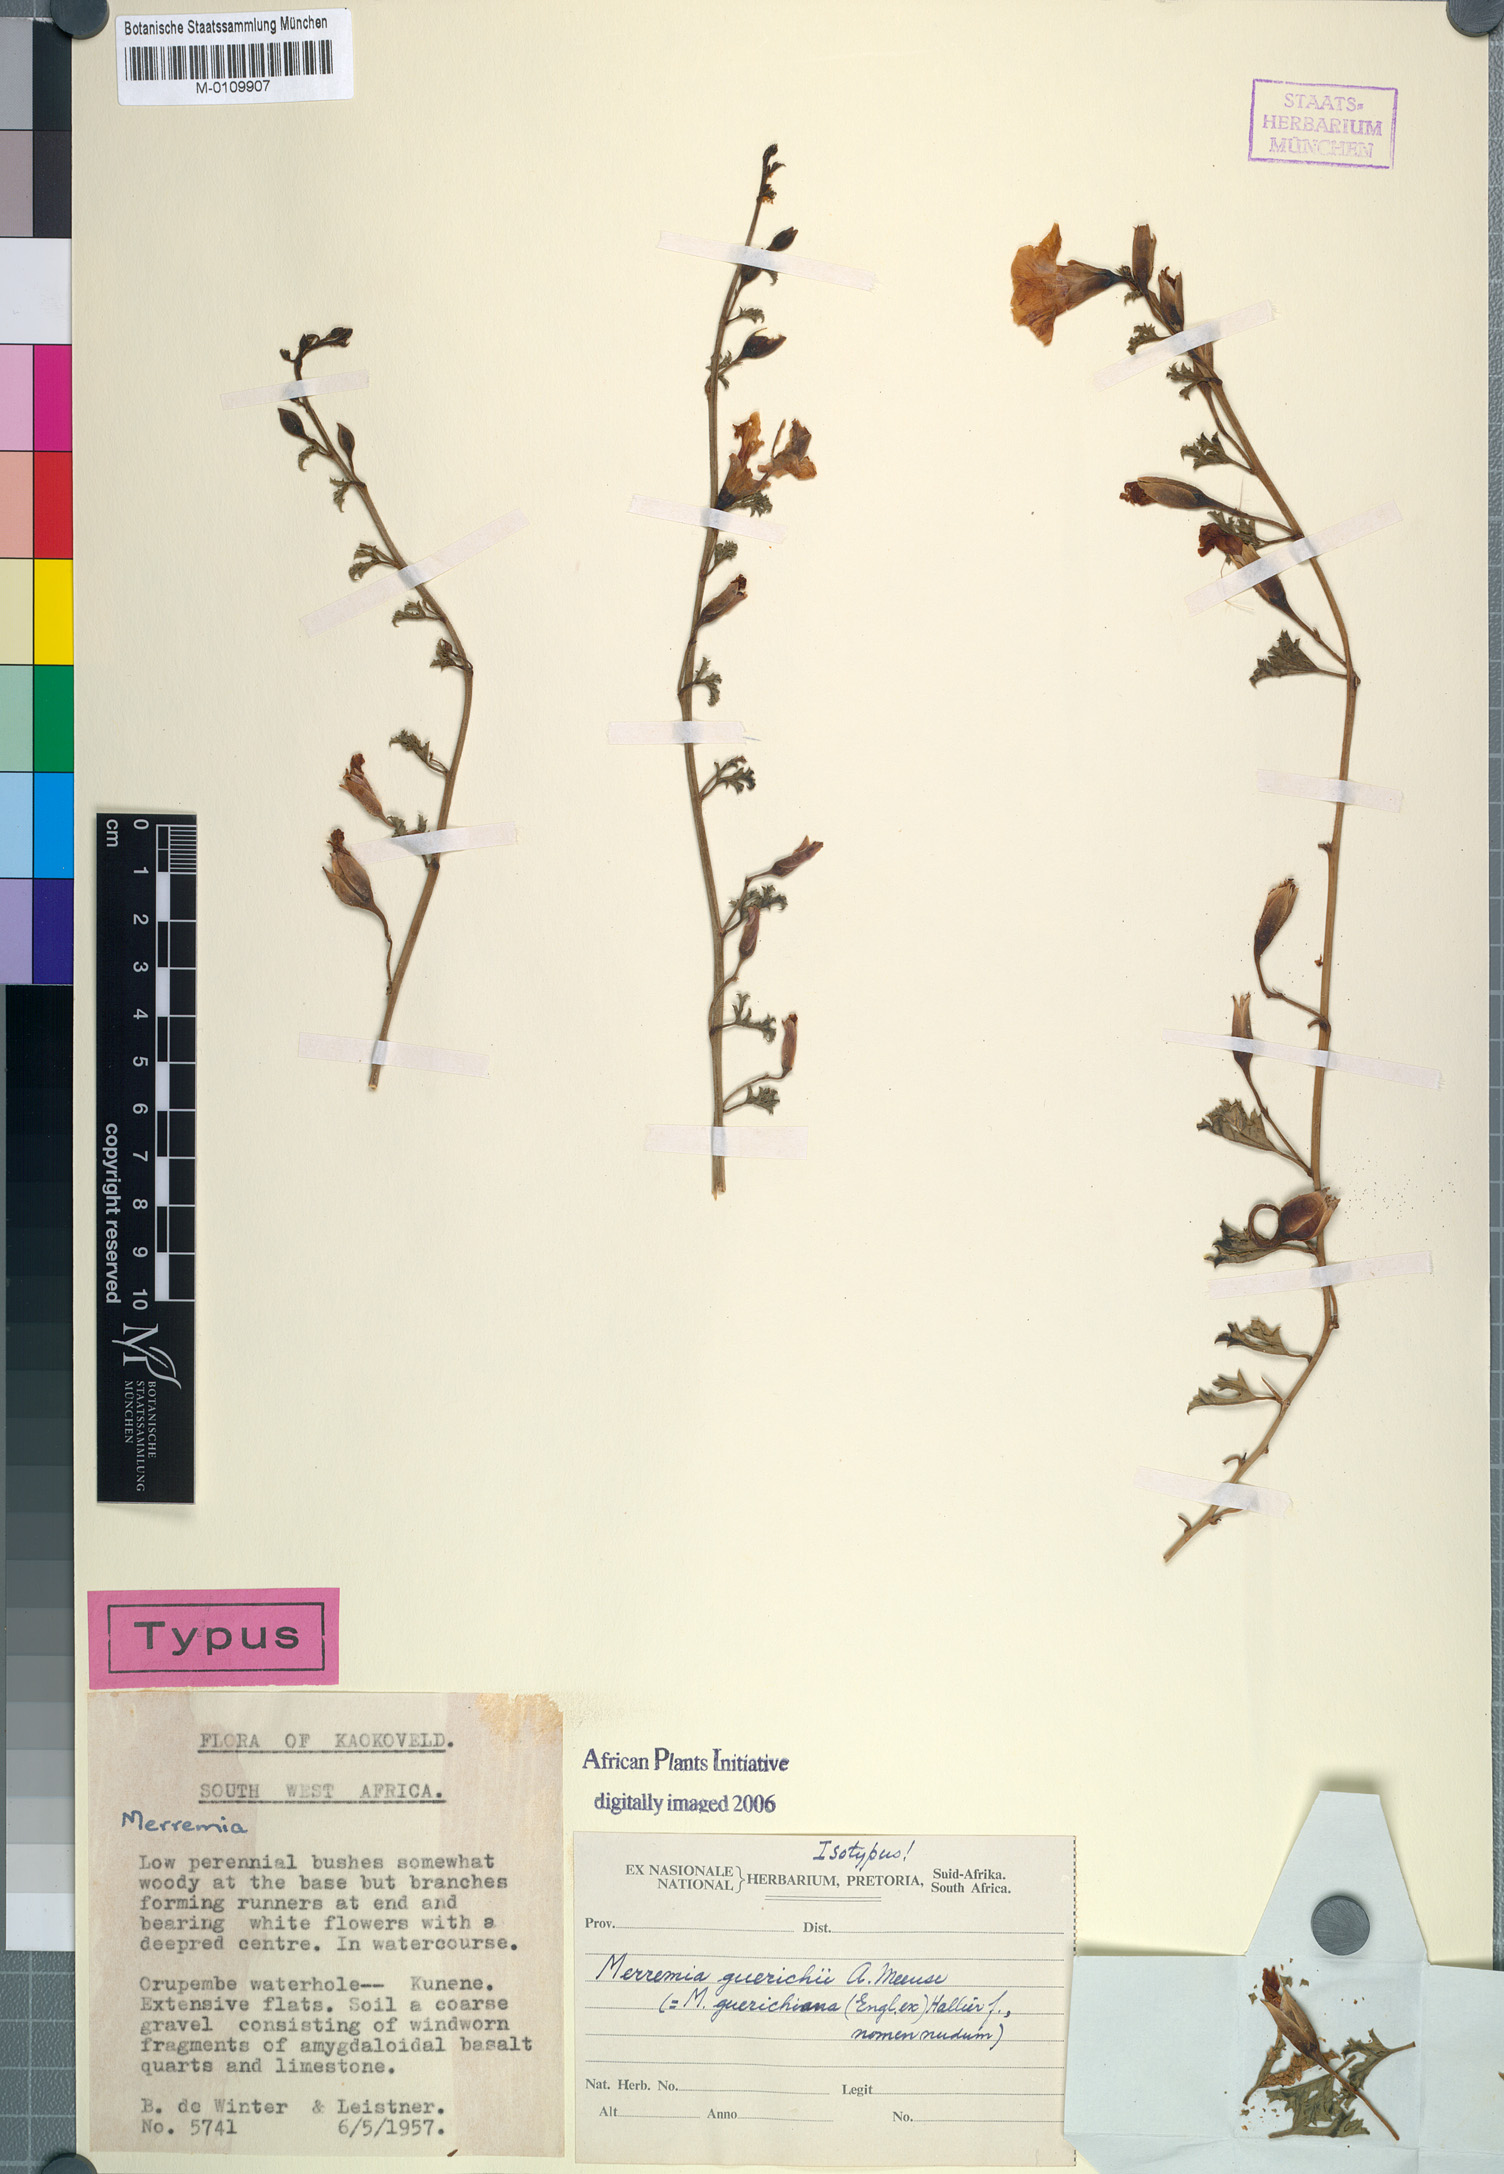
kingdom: Plantae
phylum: Tracheophyta
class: Magnoliopsida
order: Solanales
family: Convolvulaceae
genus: Distimake
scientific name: Distimake guerichii
